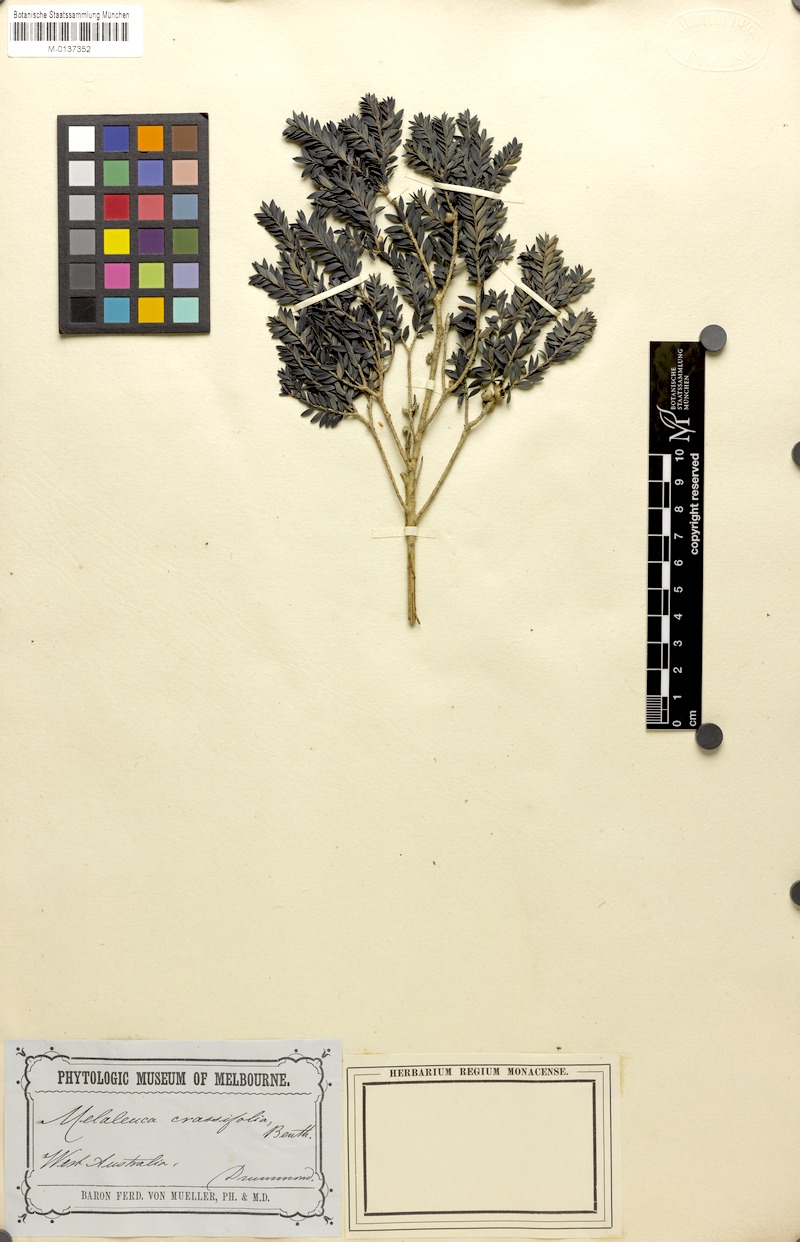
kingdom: Plantae
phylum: Tracheophyta
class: Magnoliopsida
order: Myrtales
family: Myrtaceae
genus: Melaleuca
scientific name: Melaleuca laxiflora
